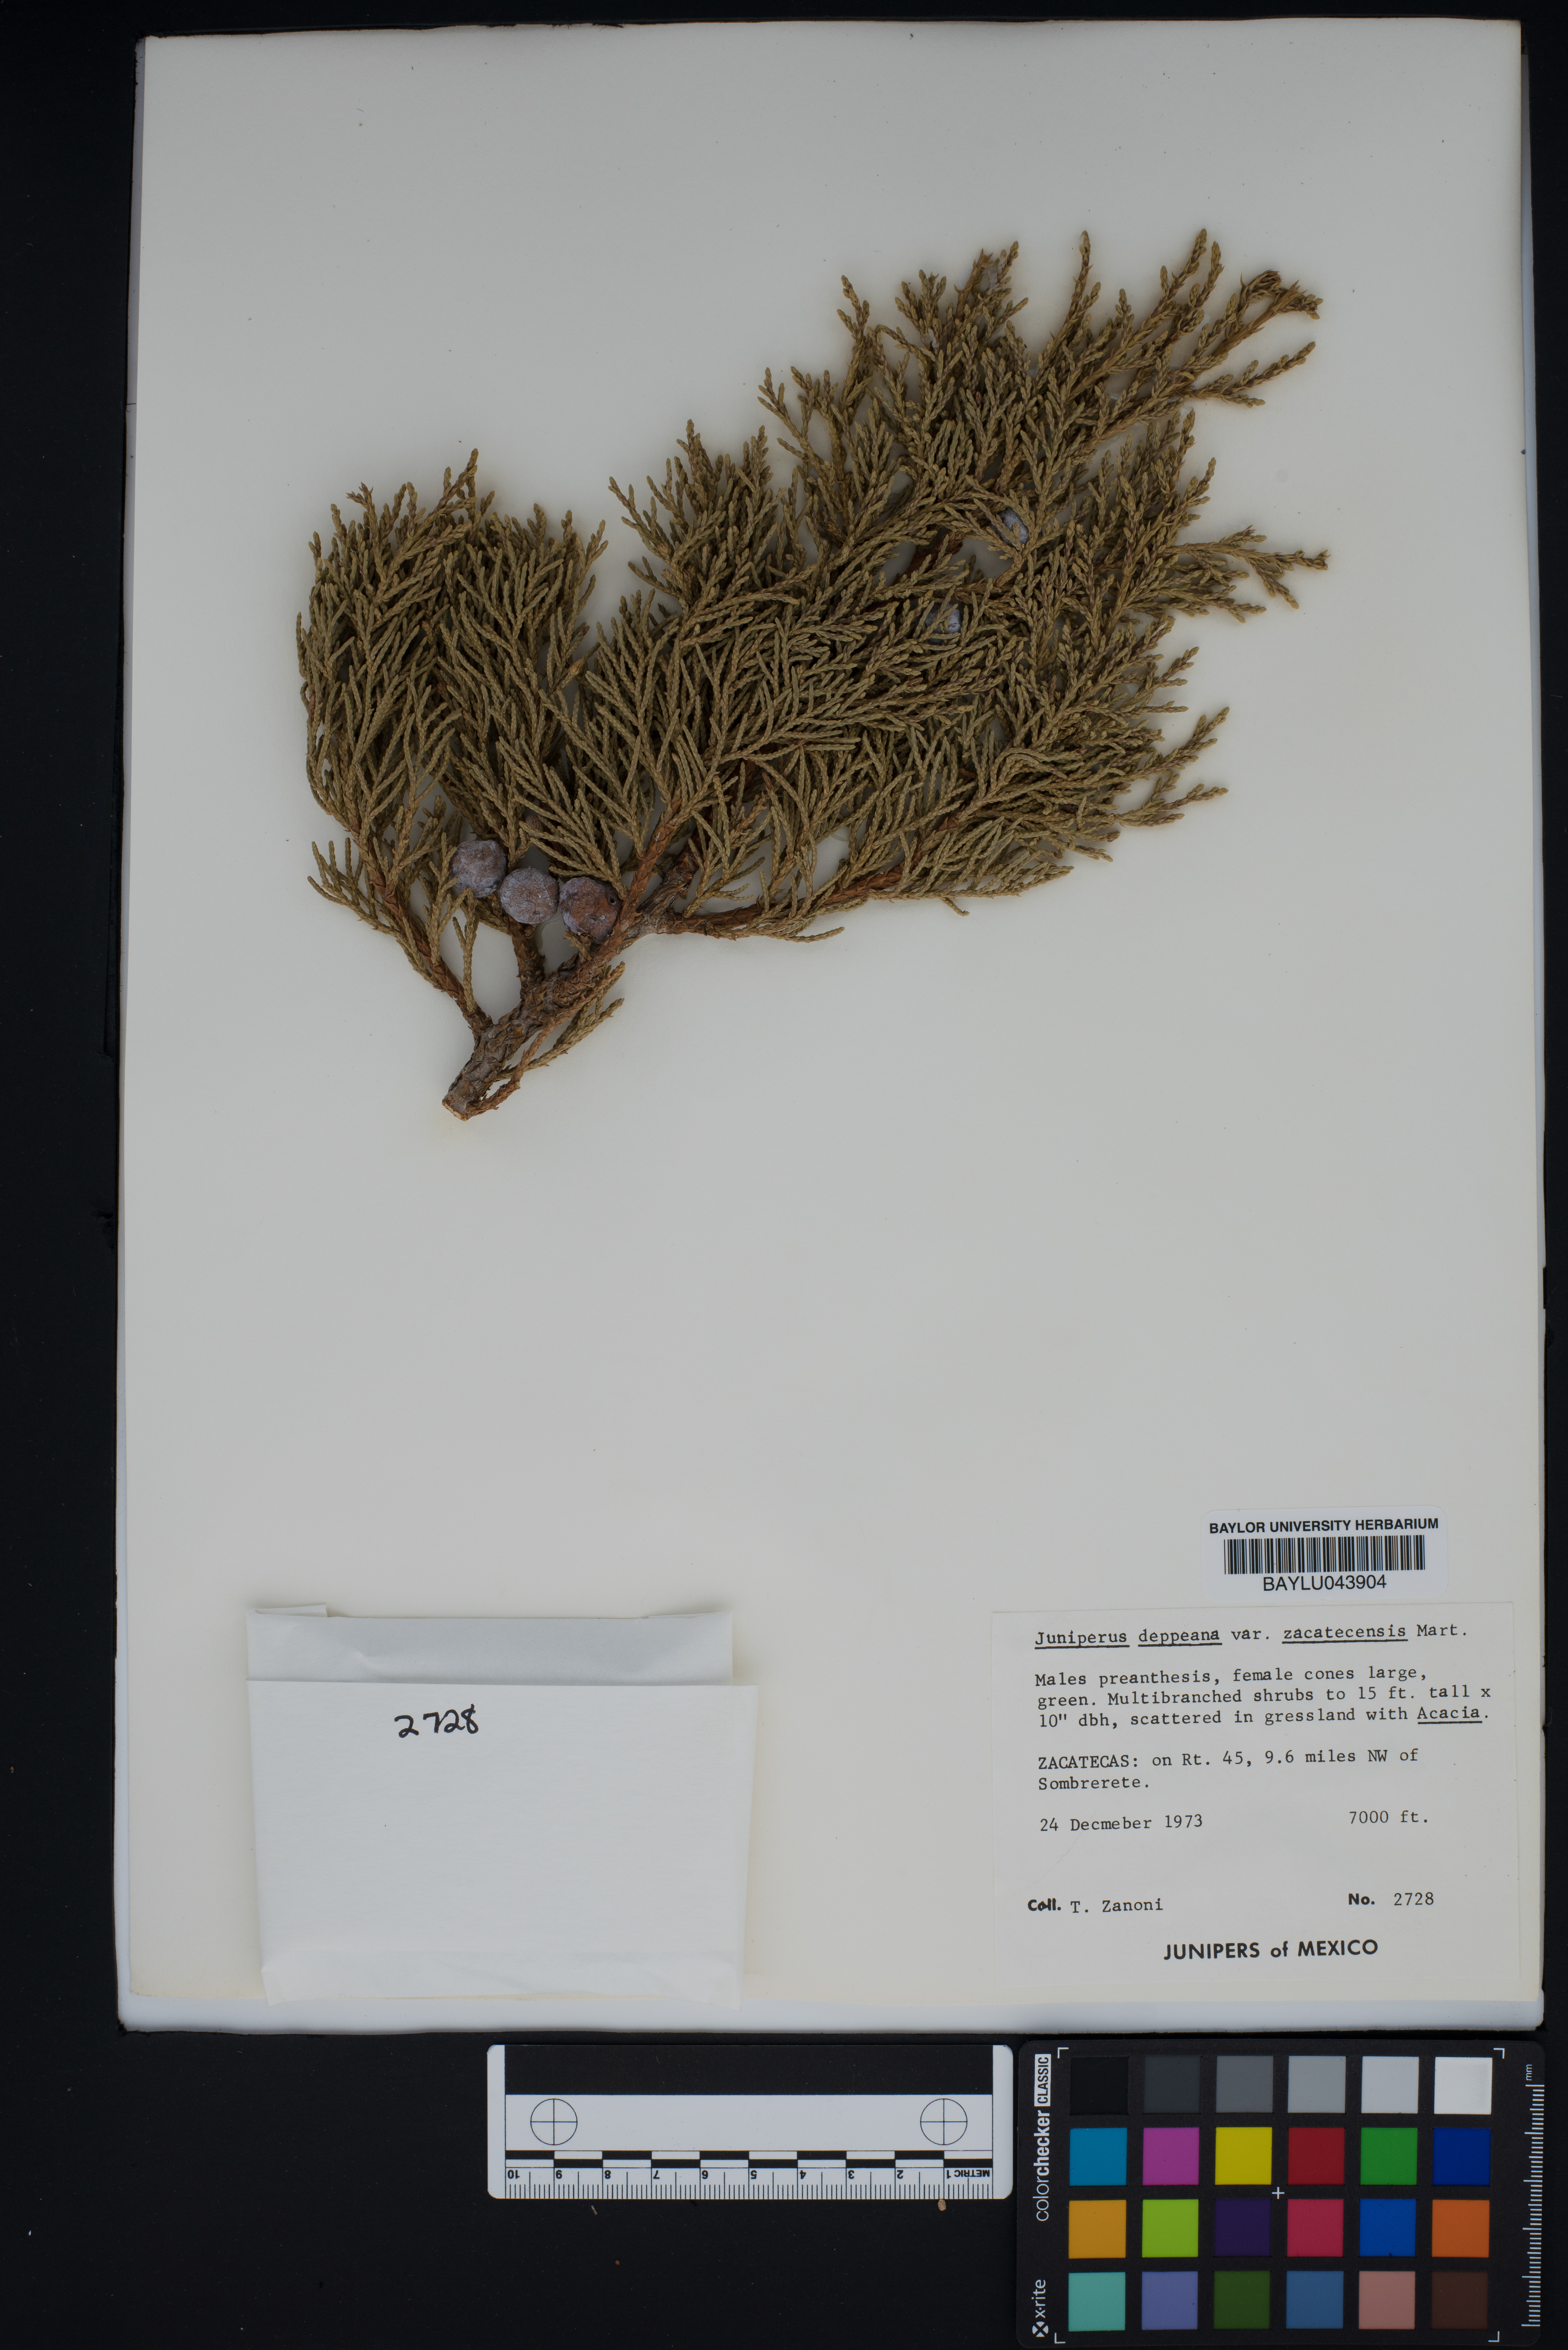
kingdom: Plantae
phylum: Tracheophyta
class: Pinopsida
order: Pinales
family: Cupressaceae
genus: Juniperus
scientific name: Juniperus deppeana
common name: Alligator juniper
